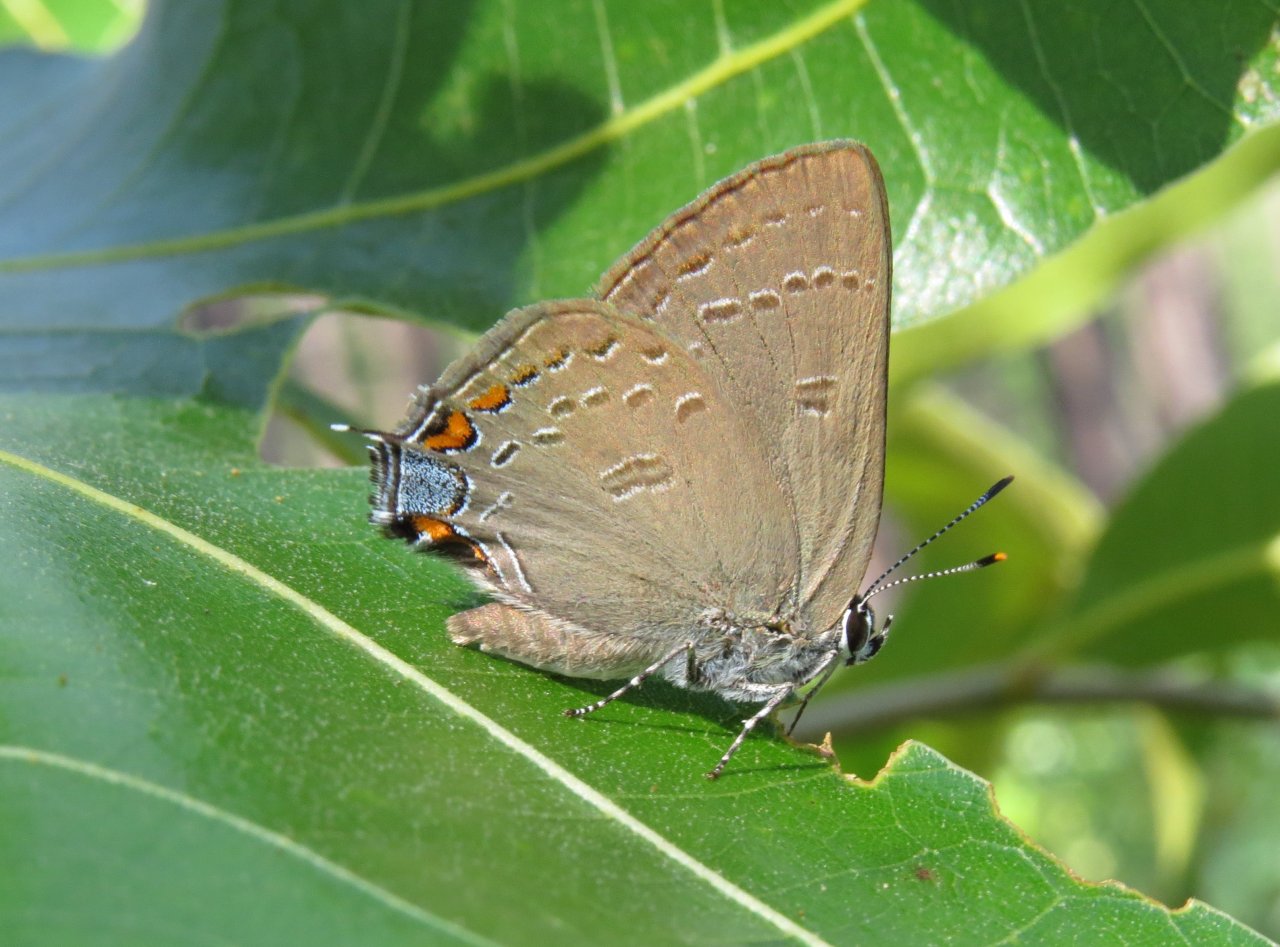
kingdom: Animalia
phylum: Arthropoda
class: Insecta
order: Lepidoptera
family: Lycaenidae
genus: Satyrium
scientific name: Satyrium edwardsii
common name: Edwards' Hairstreak
